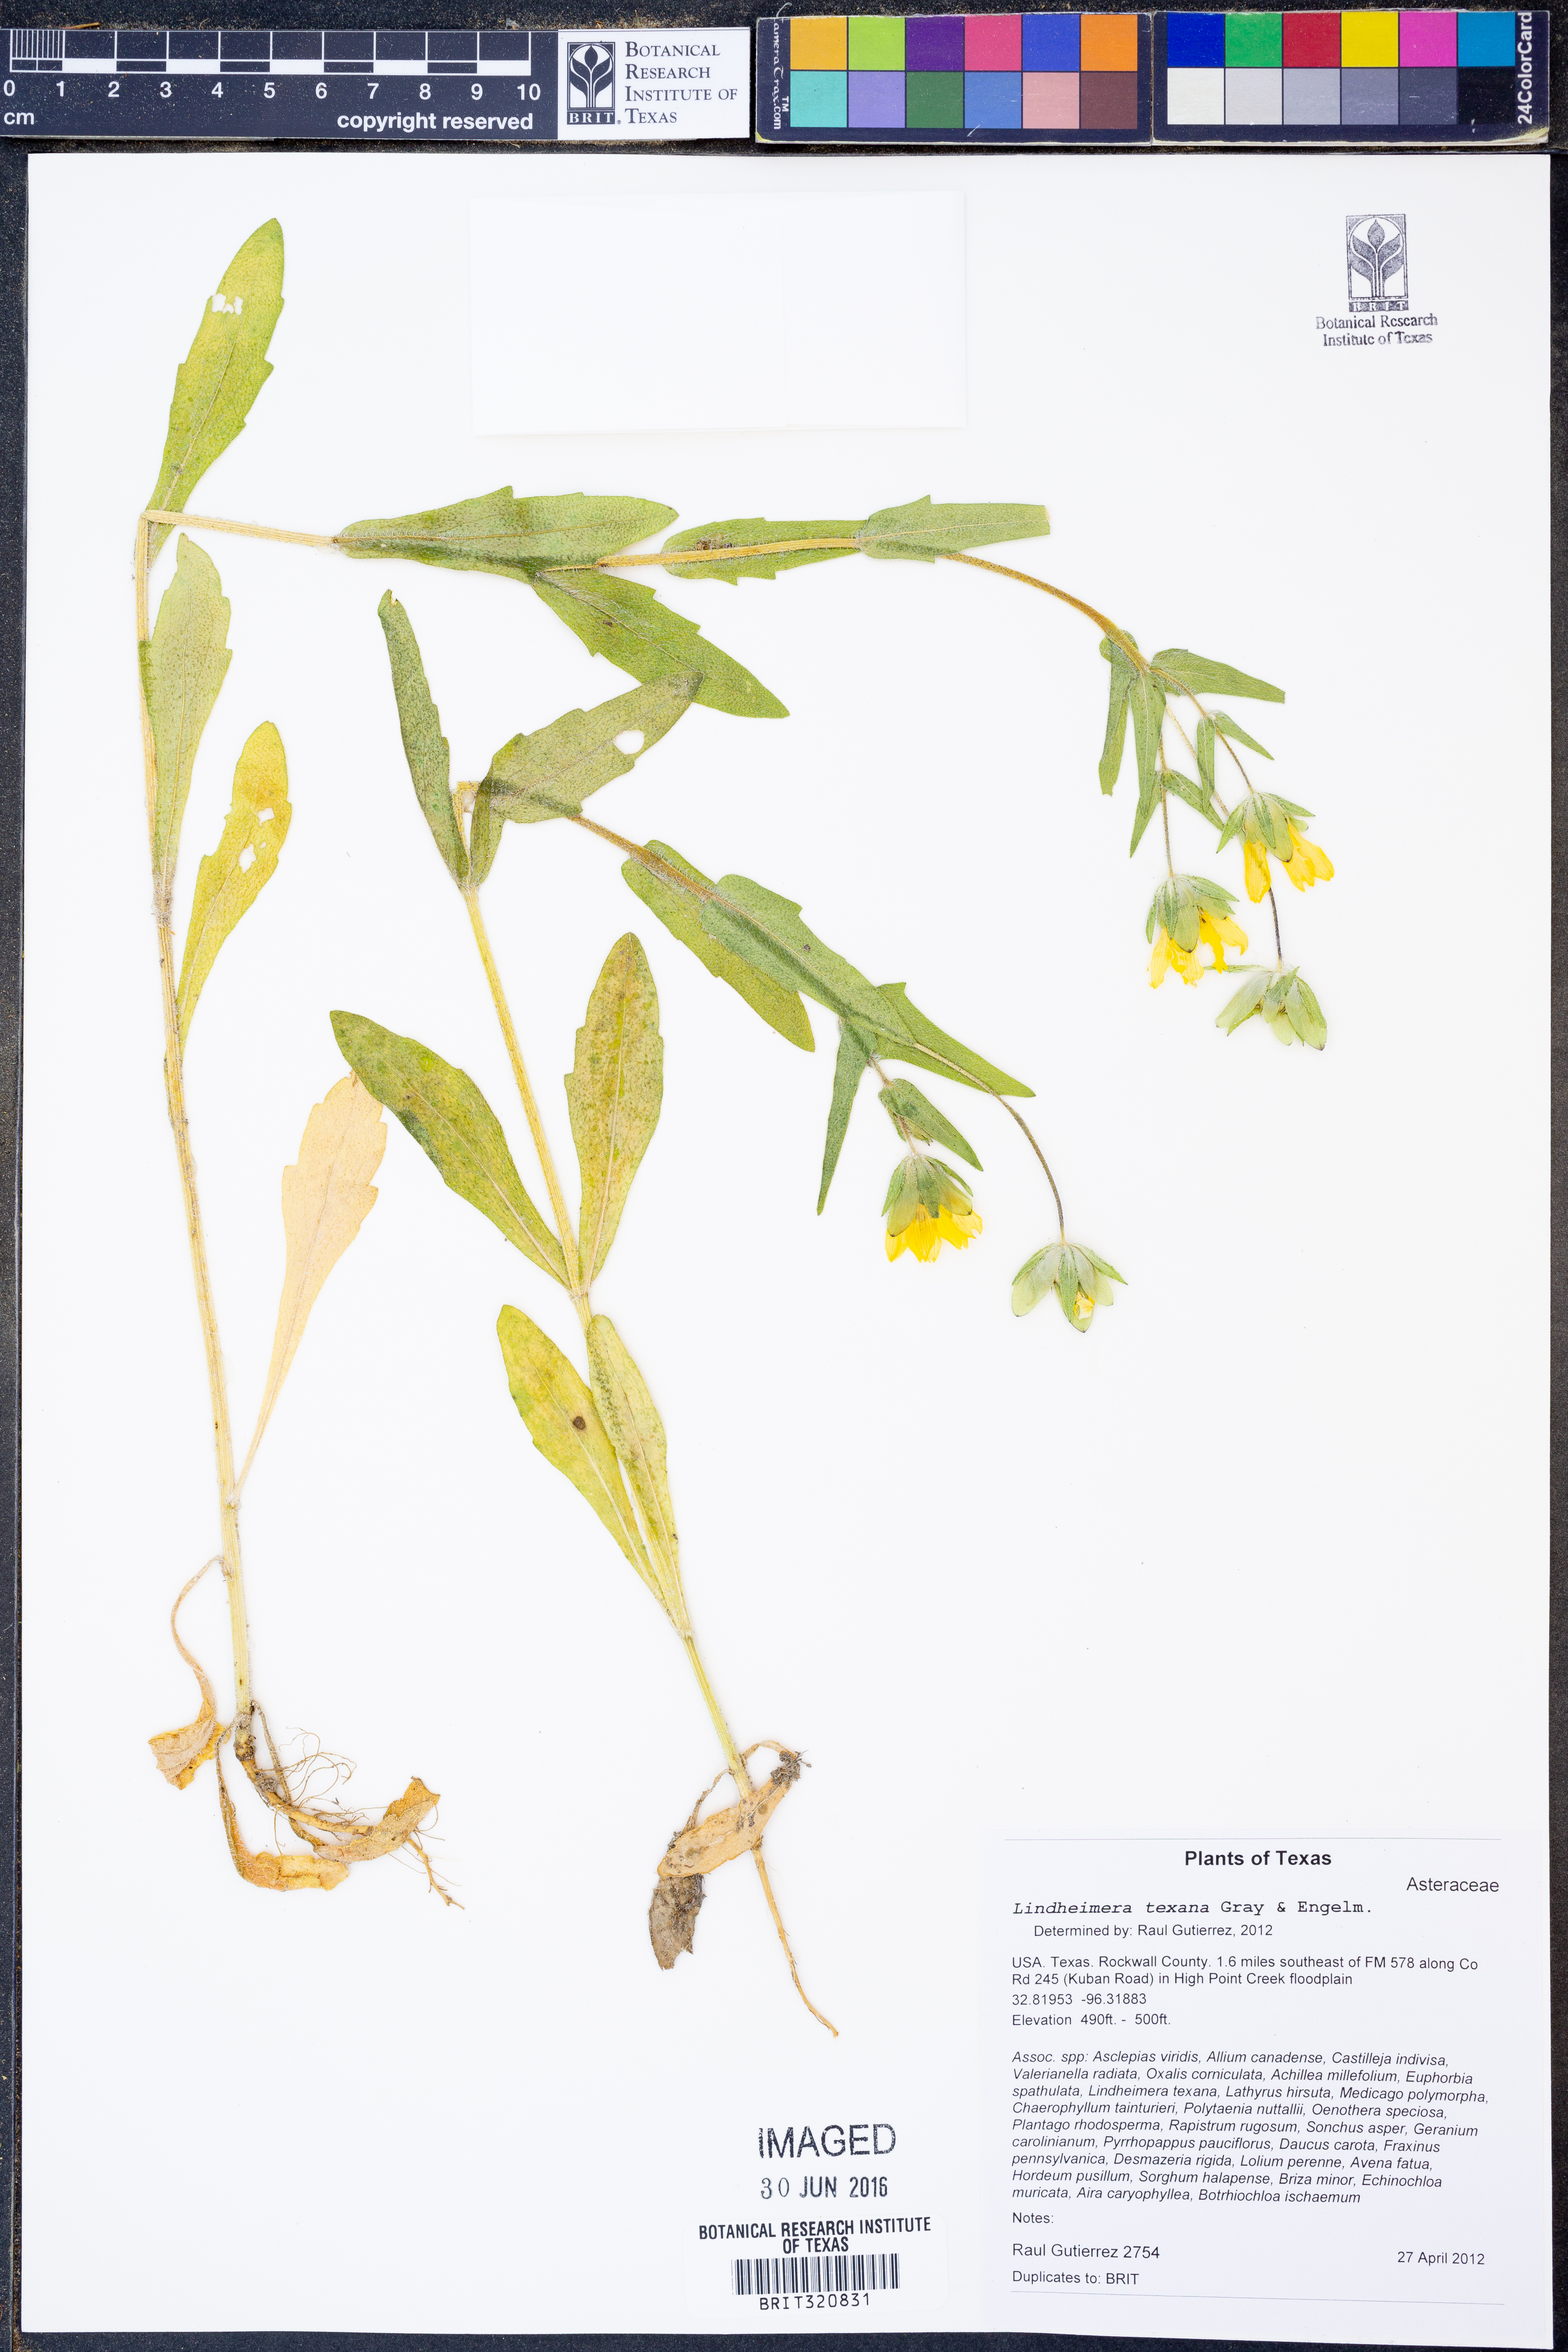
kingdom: Plantae
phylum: Tracheophyta
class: Magnoliopsida
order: Asterales
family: Asteraceae
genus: Lindheimera
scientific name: Lindheimera texana
